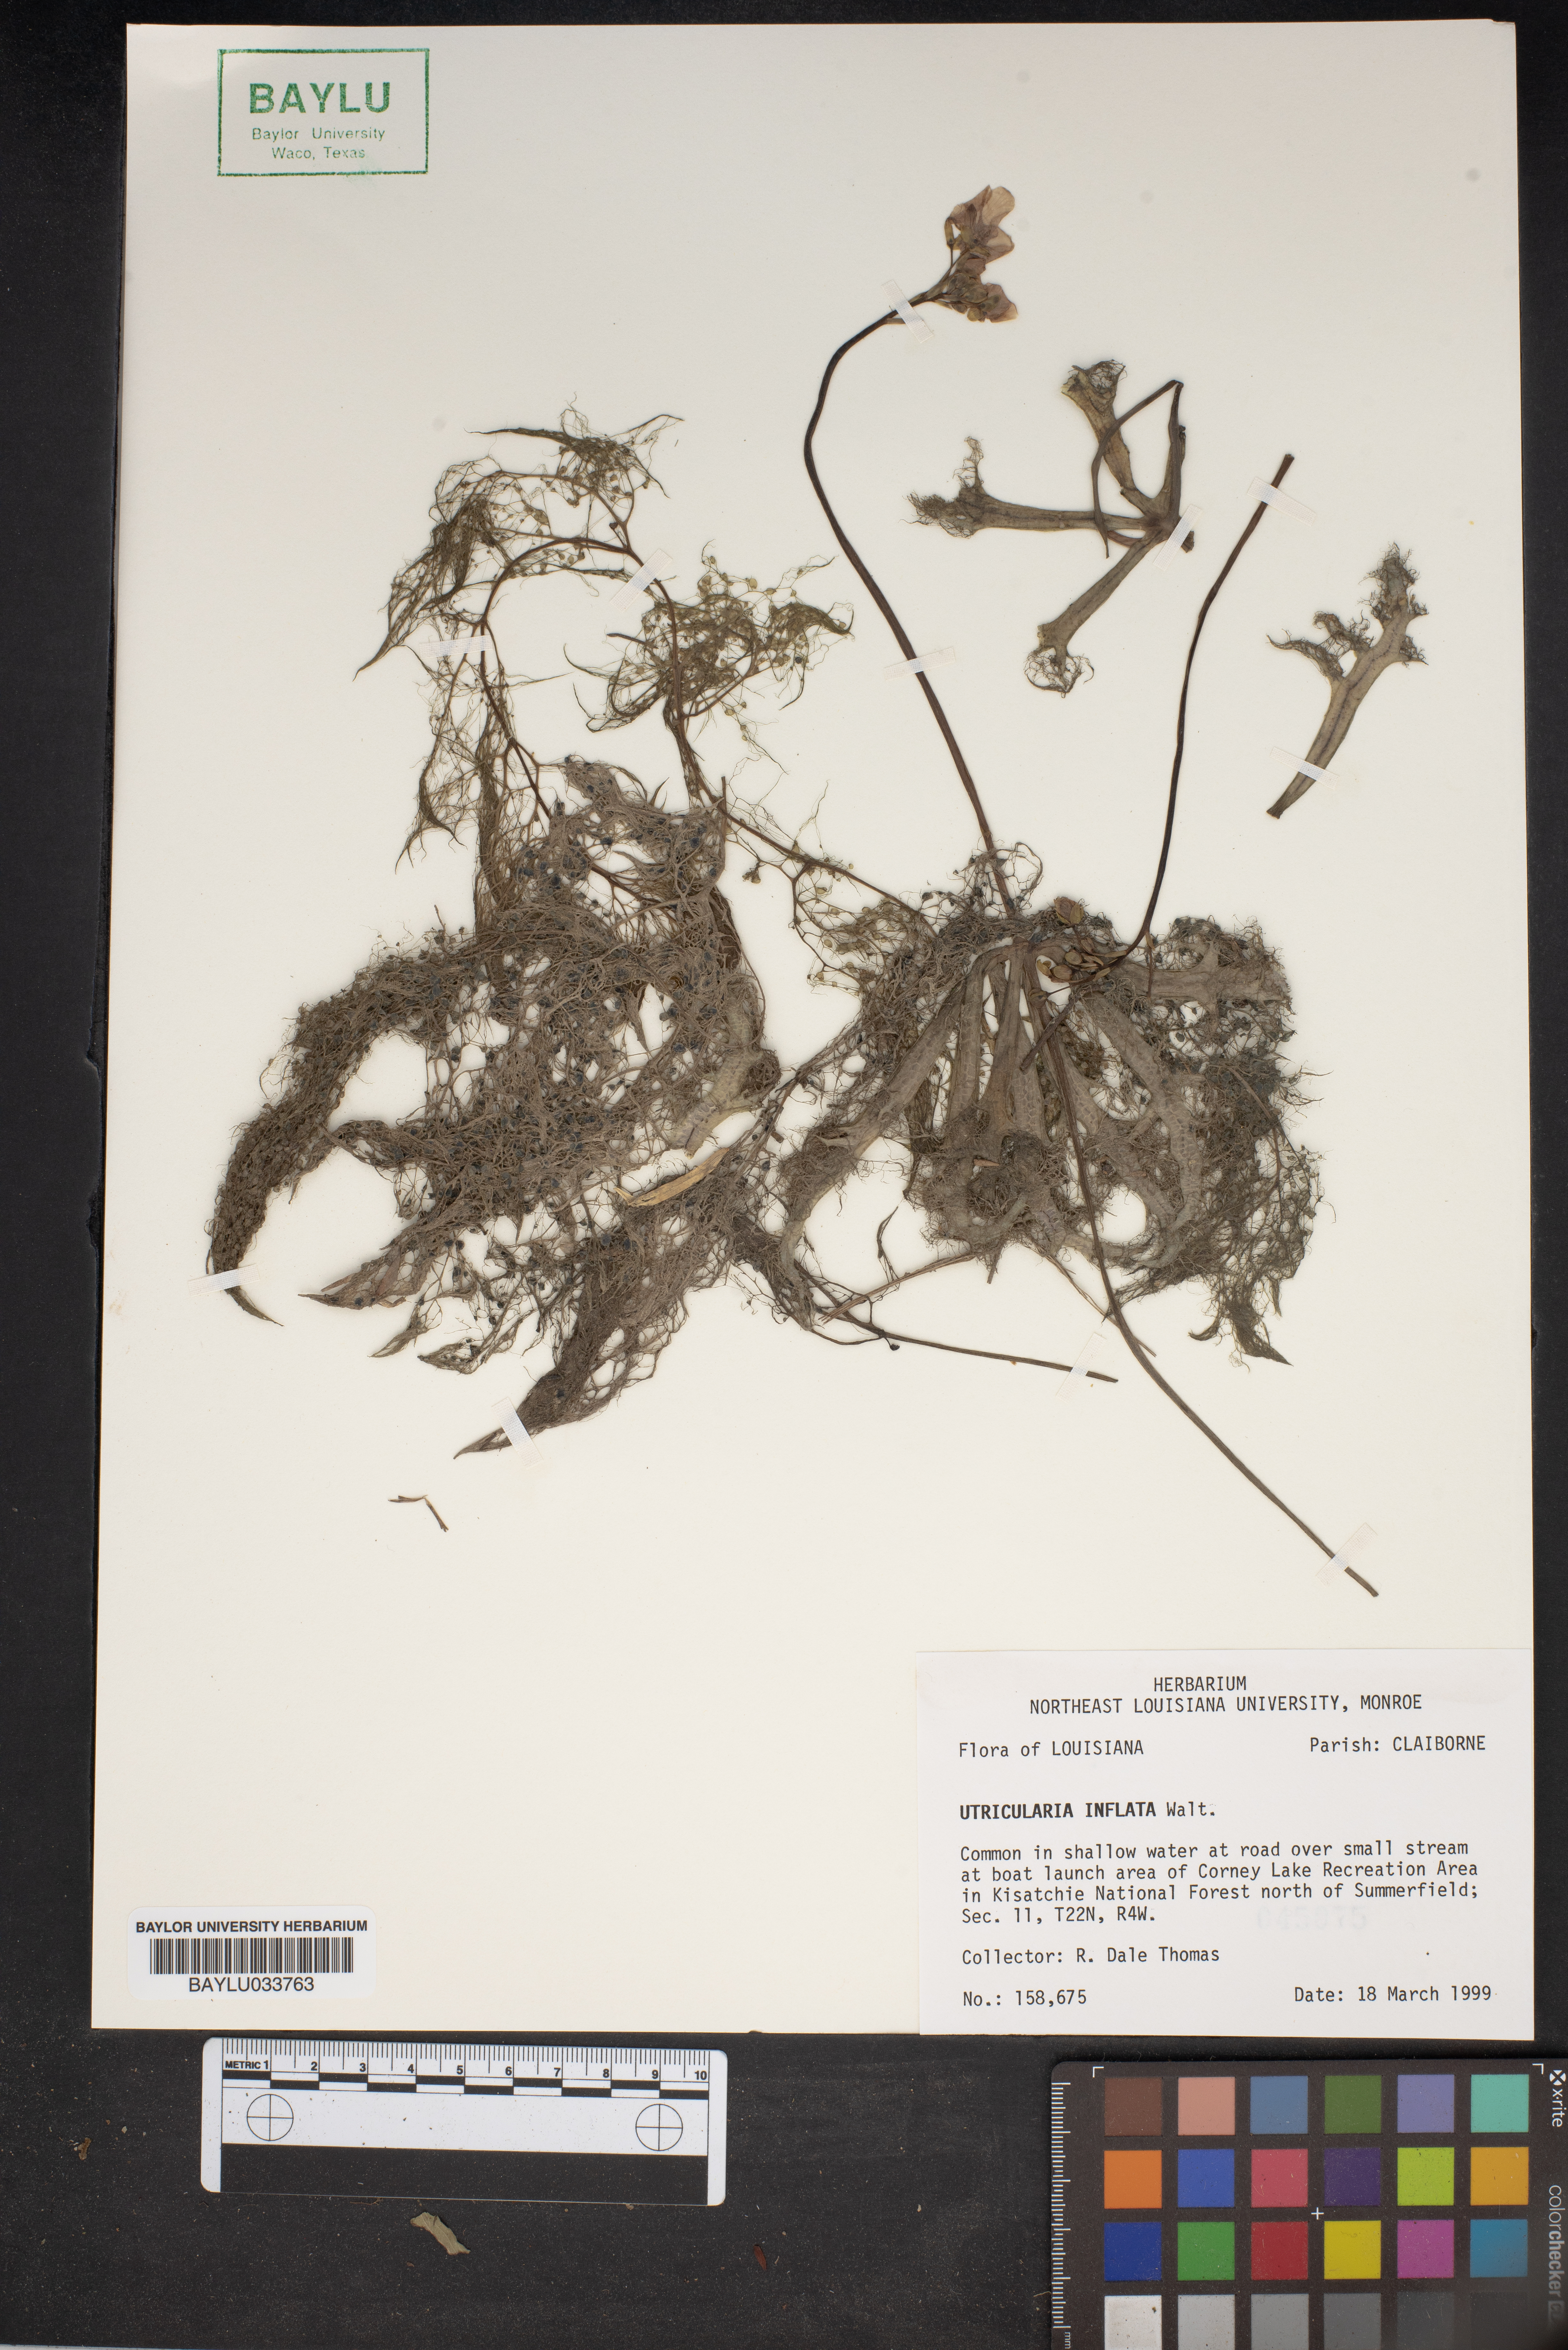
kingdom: Plantae
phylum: Tracheophyta
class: Magnoliopsida
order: Lamiales
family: Lentibulariaceae
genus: Utricularia
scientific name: Utricularia inflata
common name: Floating bladderwort
